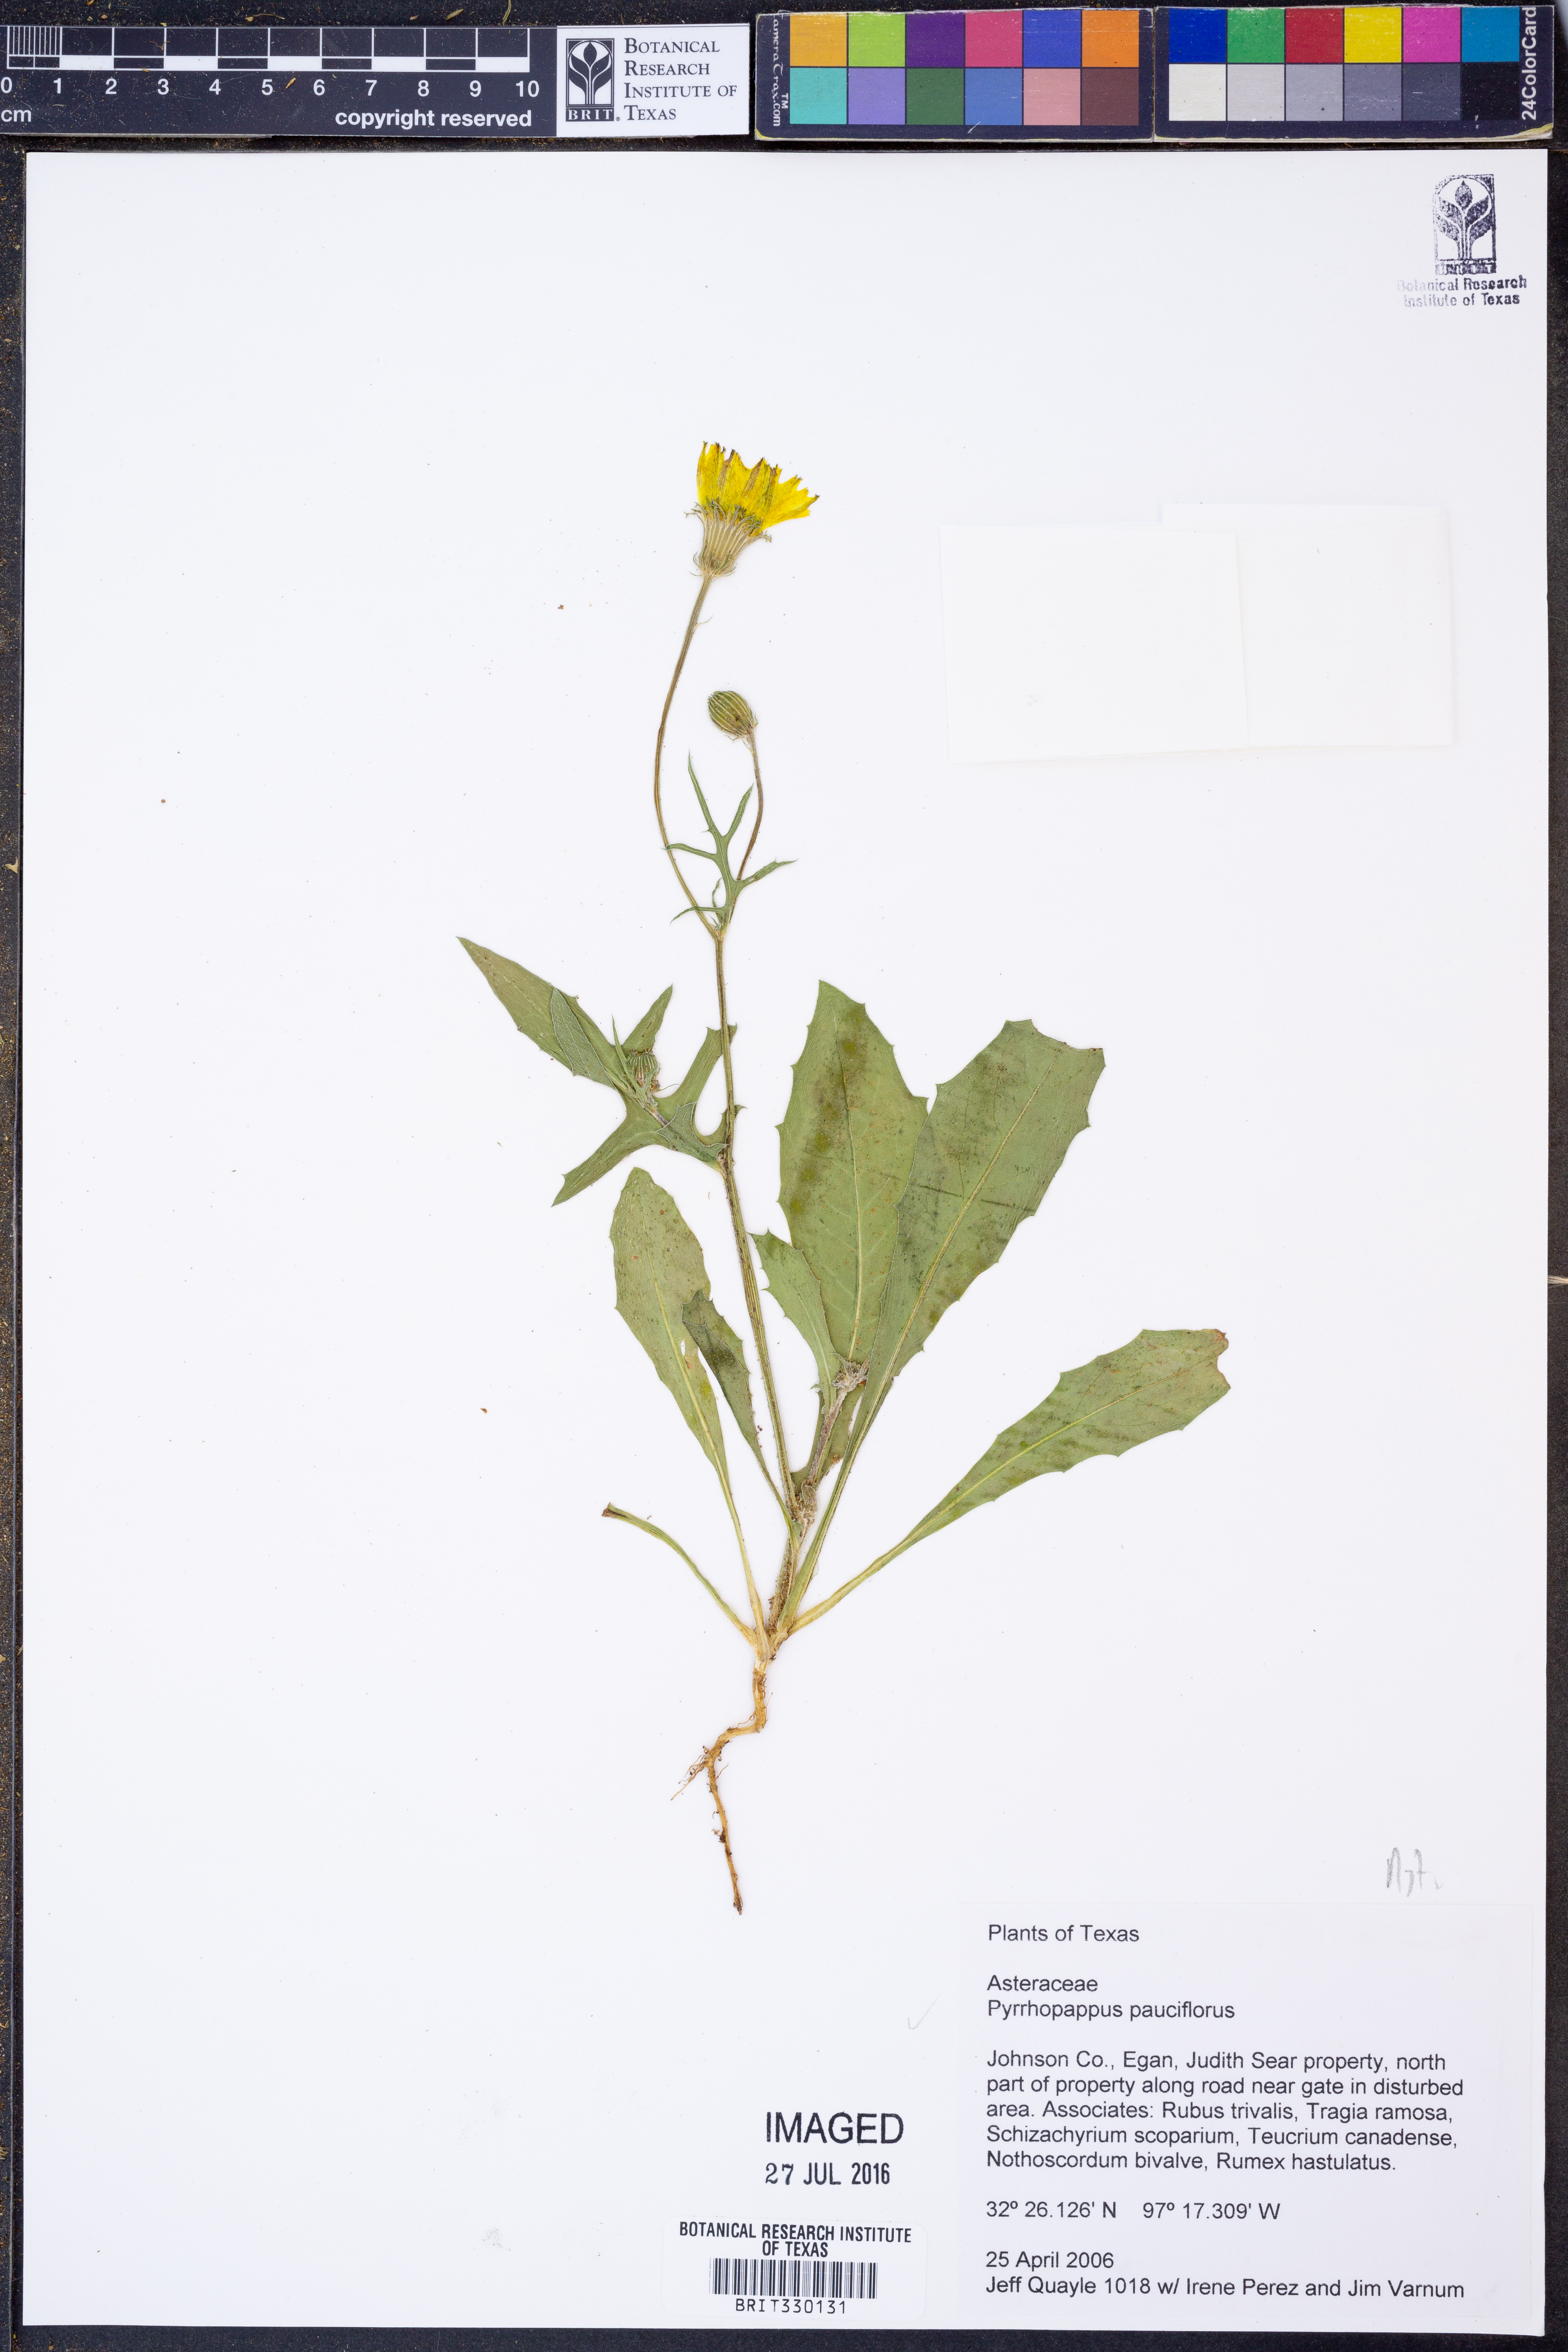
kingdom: Plantae
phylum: Tracheophyta
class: Magnoliopsida
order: Asterales
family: Asteraceae
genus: Pyrrhopappus
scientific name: Pyrrhopappus pauciflorus
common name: Texas false dandelion
